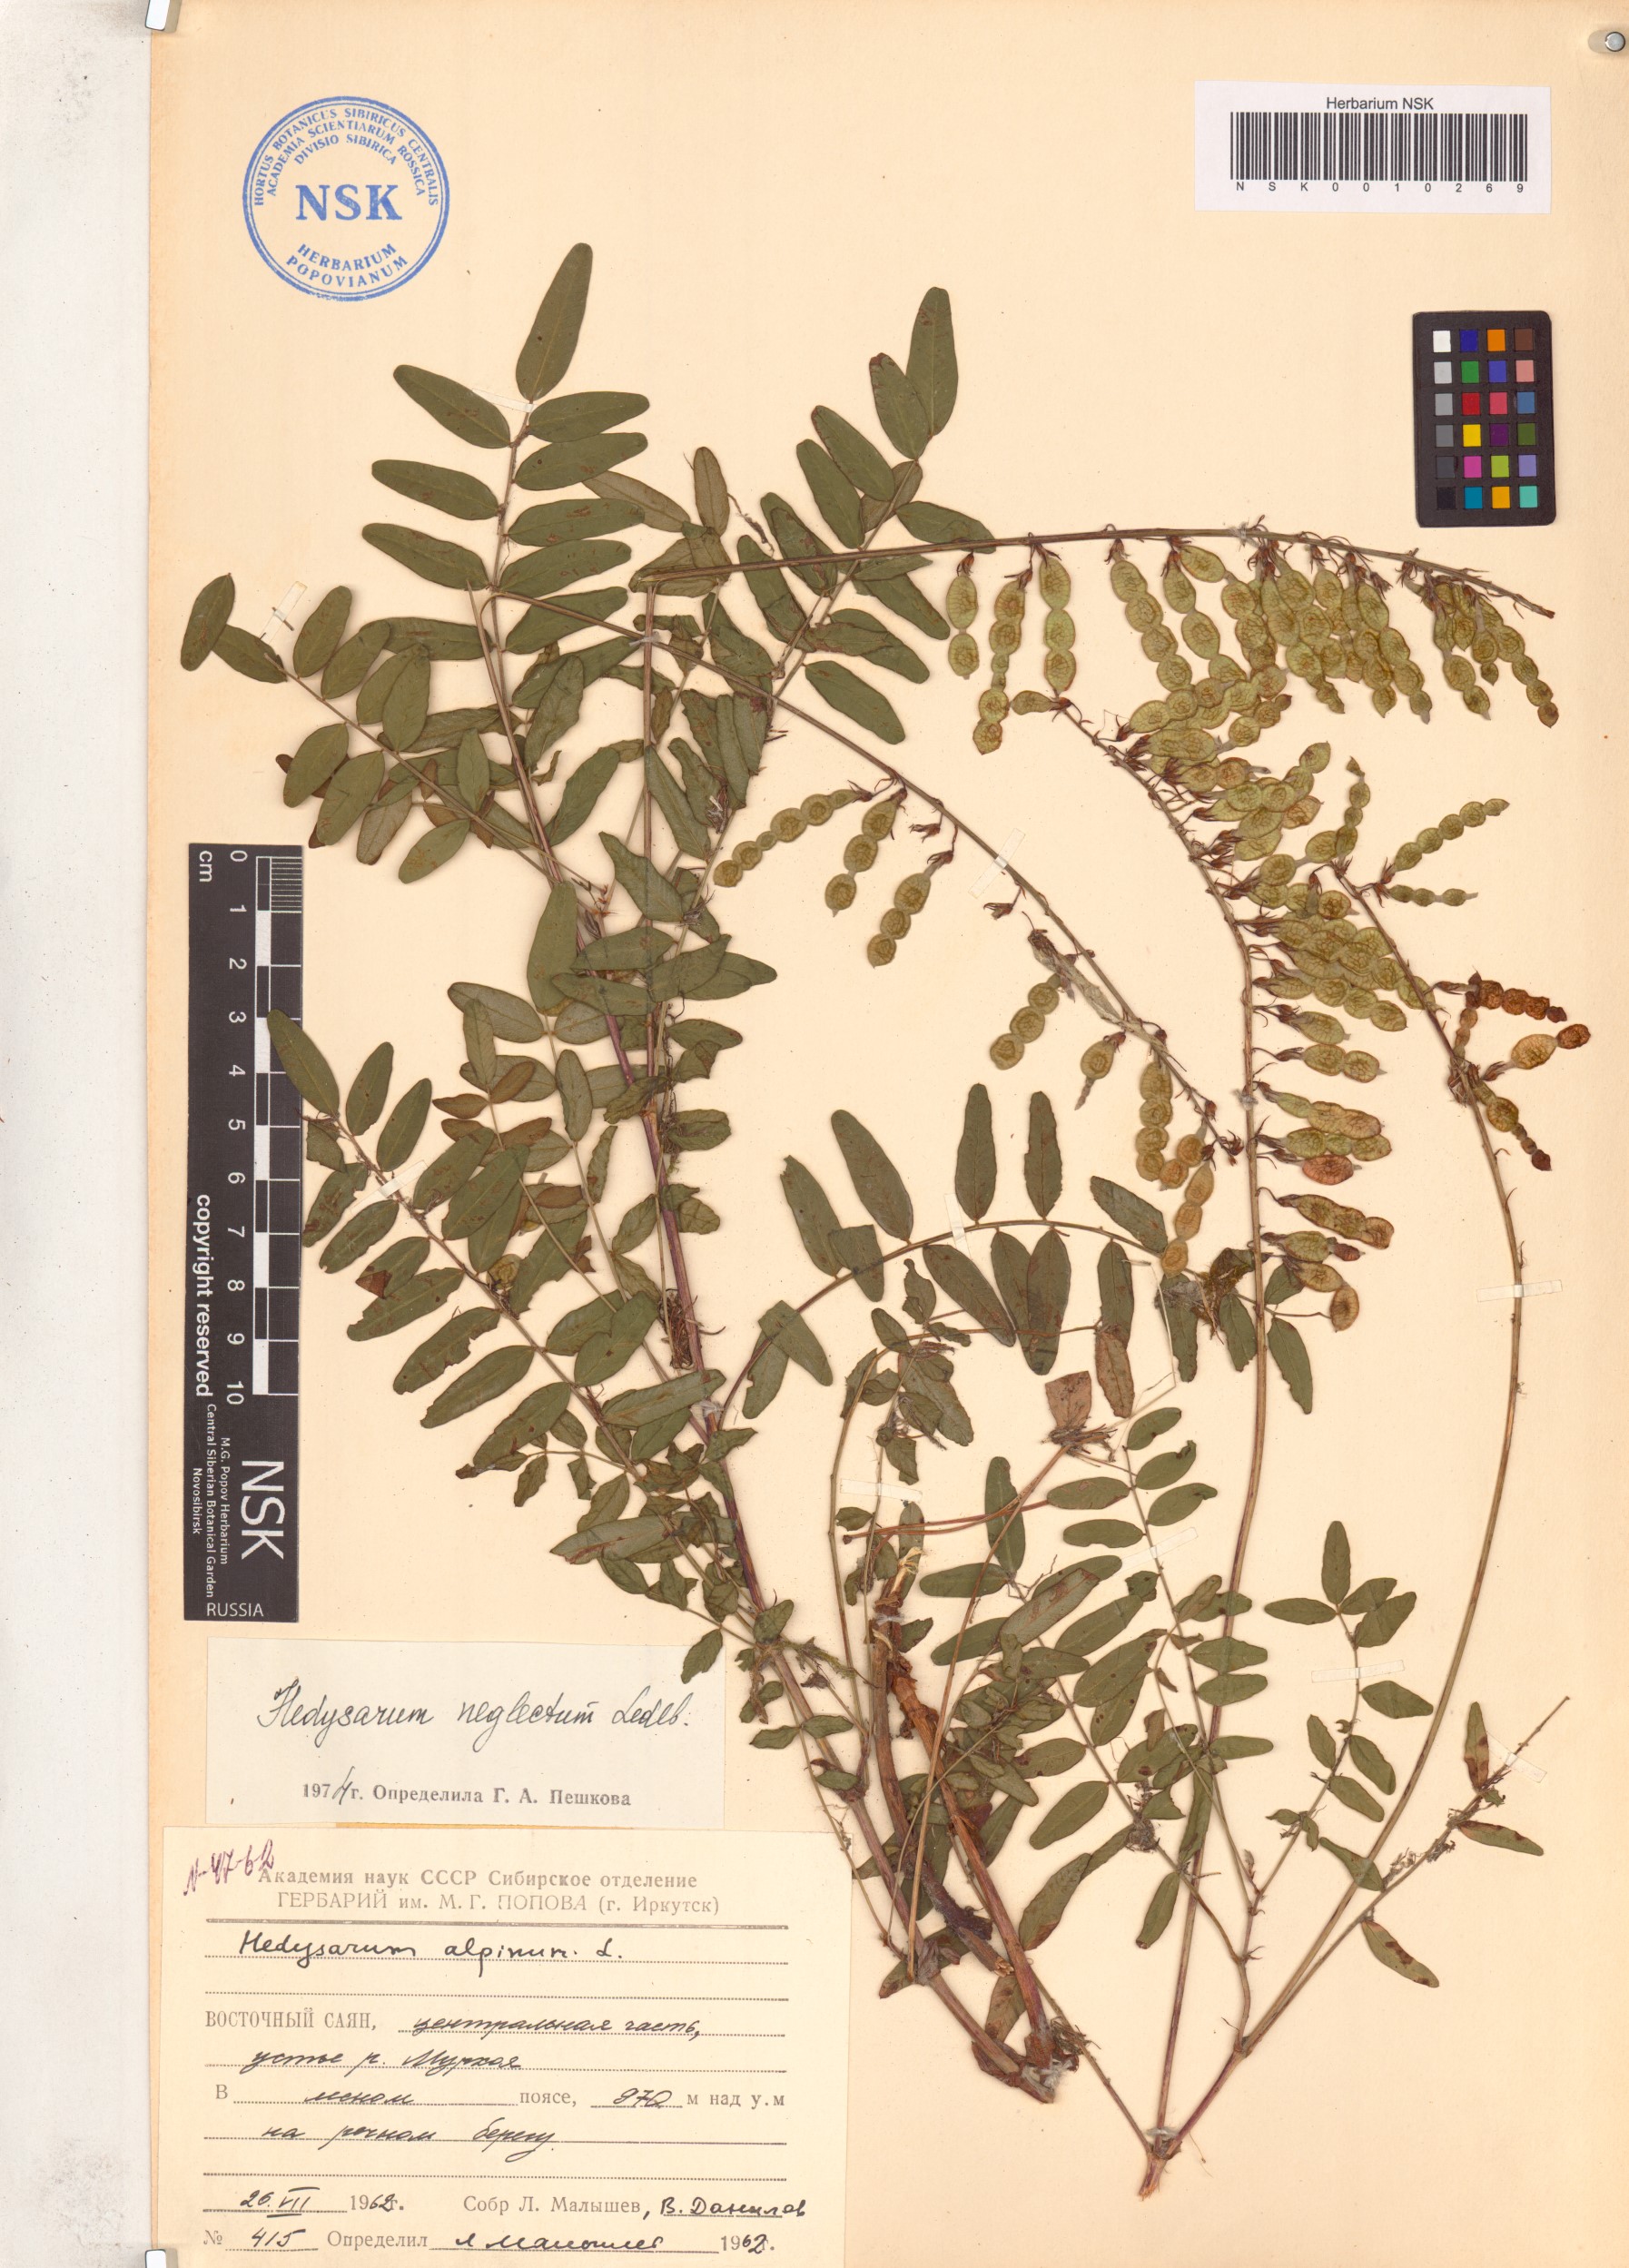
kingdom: Plantae
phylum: Tracheophyta
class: Magnoliopsida
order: Fabales
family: Fabaceae
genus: Hedysarum
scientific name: Hedysarum neglectum
